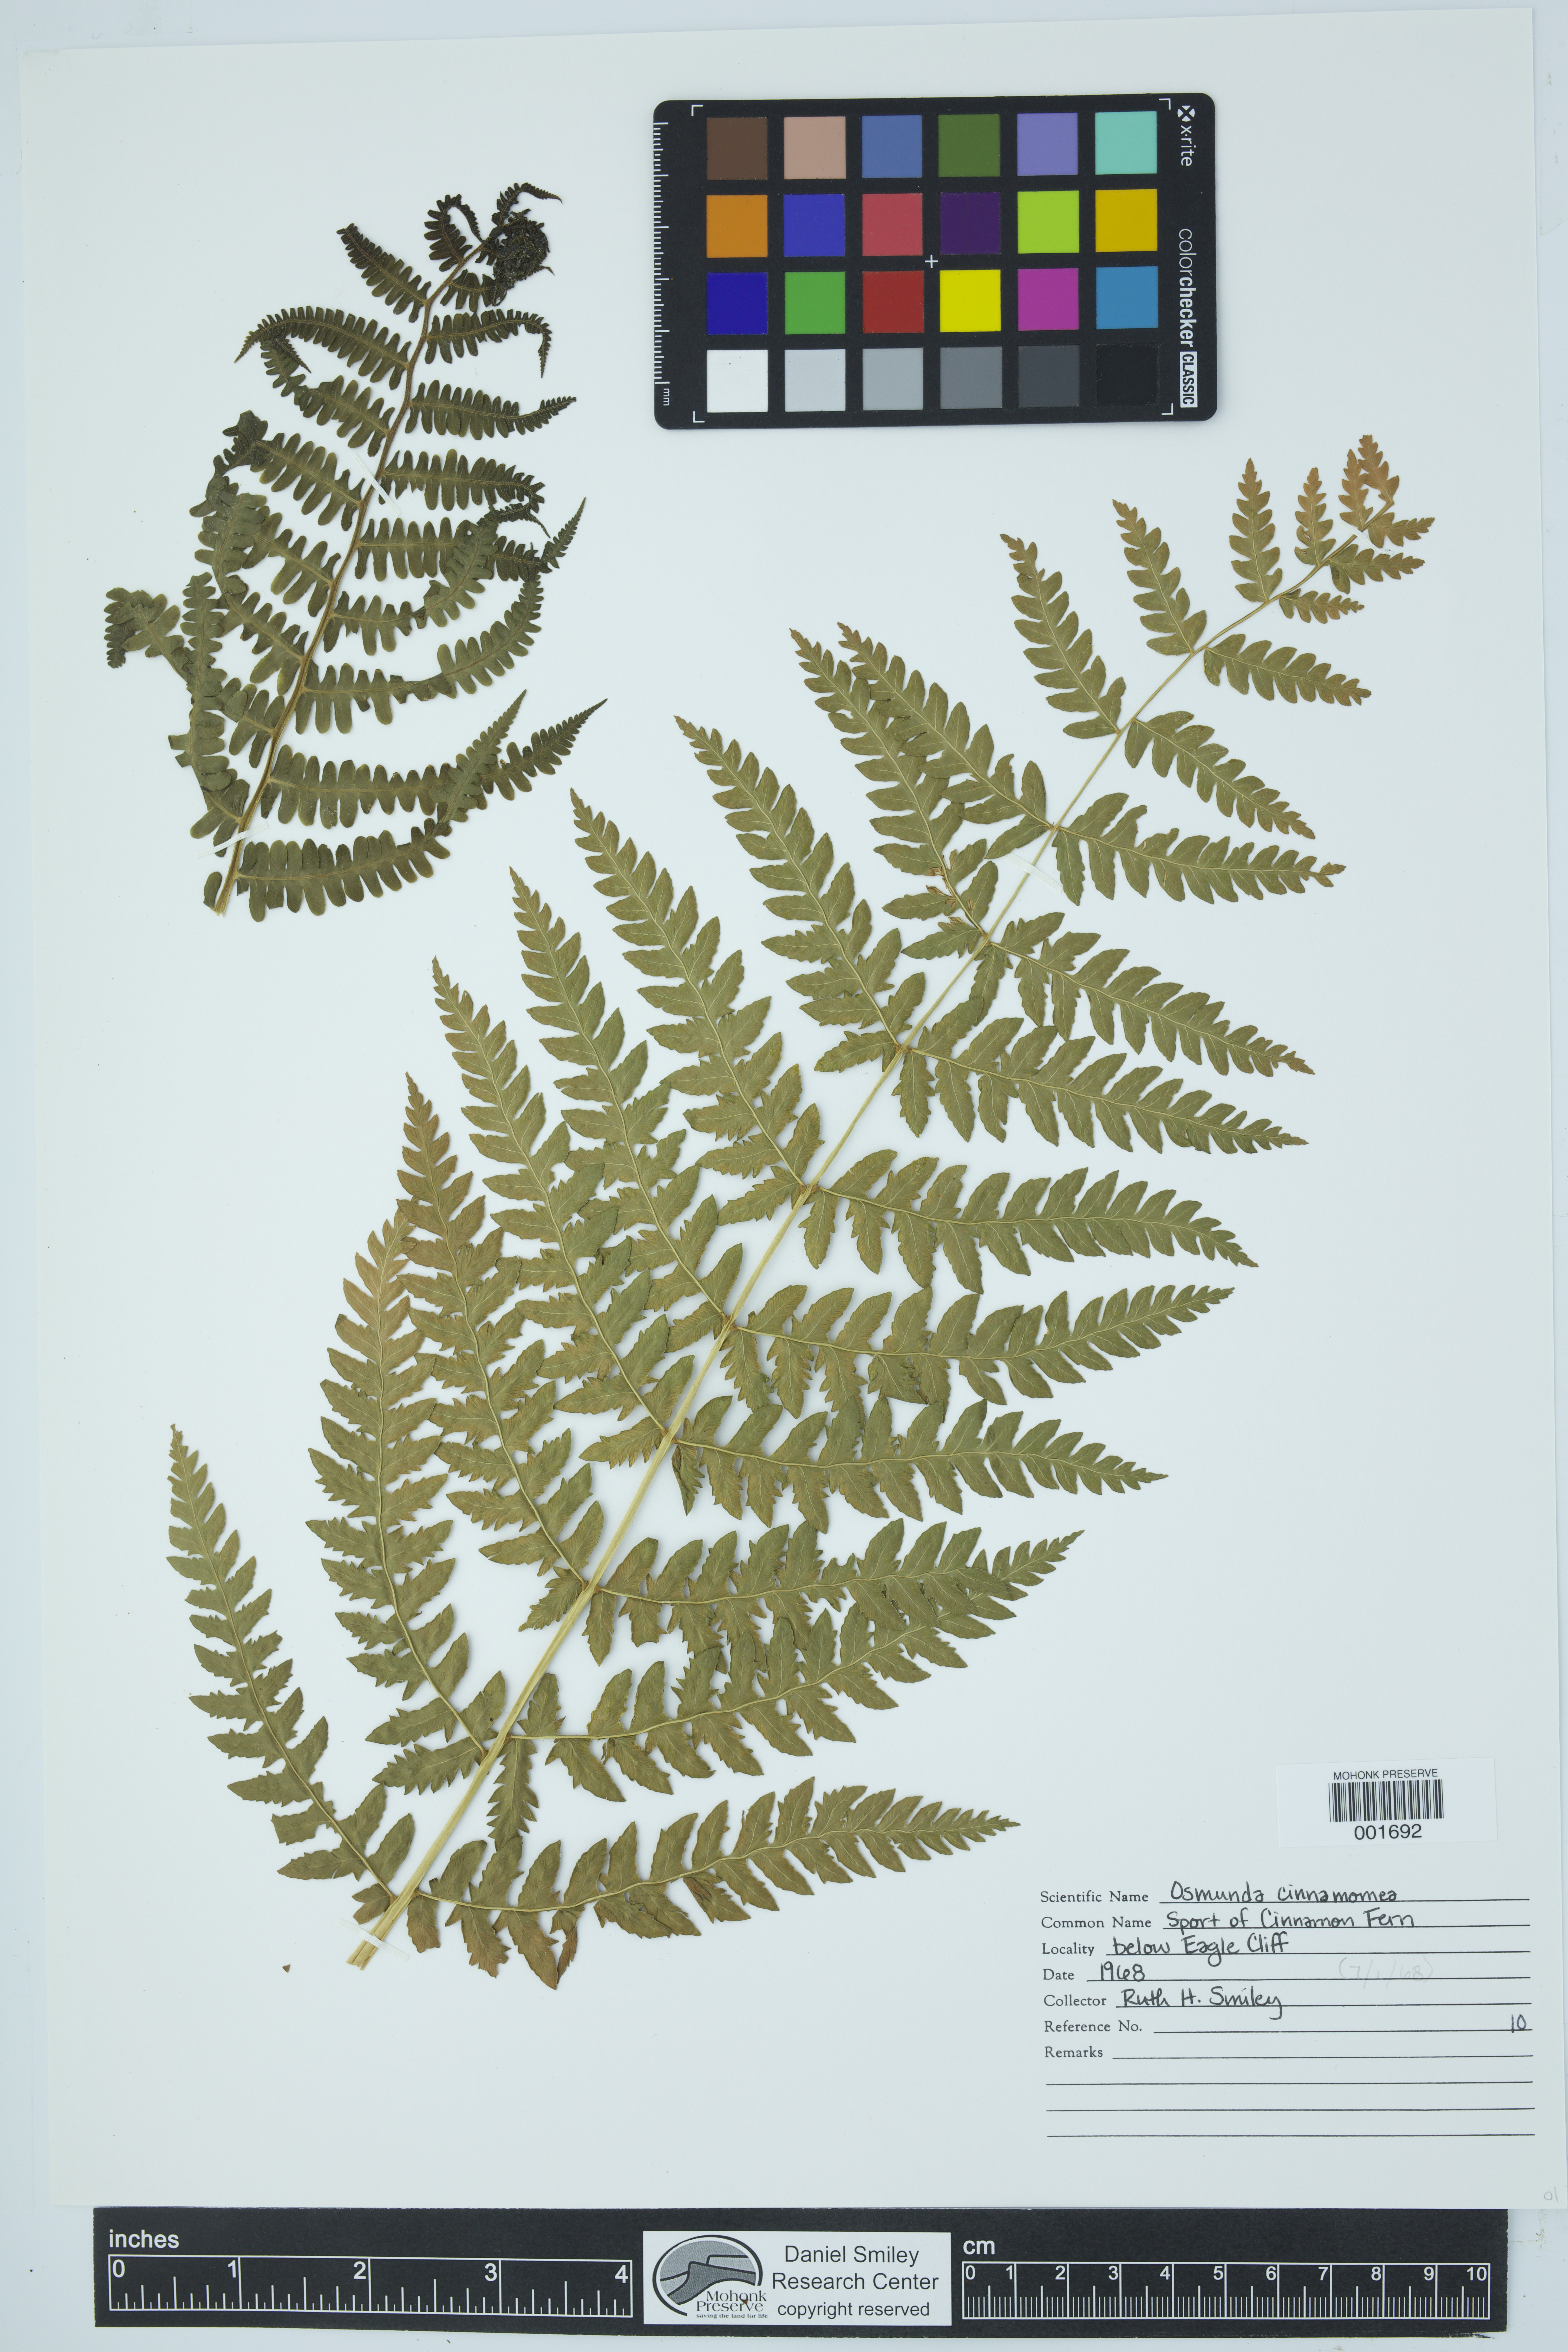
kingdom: Plantae
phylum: Tracheophyta
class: Polypodiopsida
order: Osmundales
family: Osmundaceae
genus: Osmundastrum
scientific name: Osmundastrum cinnamomeum
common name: Cinnamon fern
